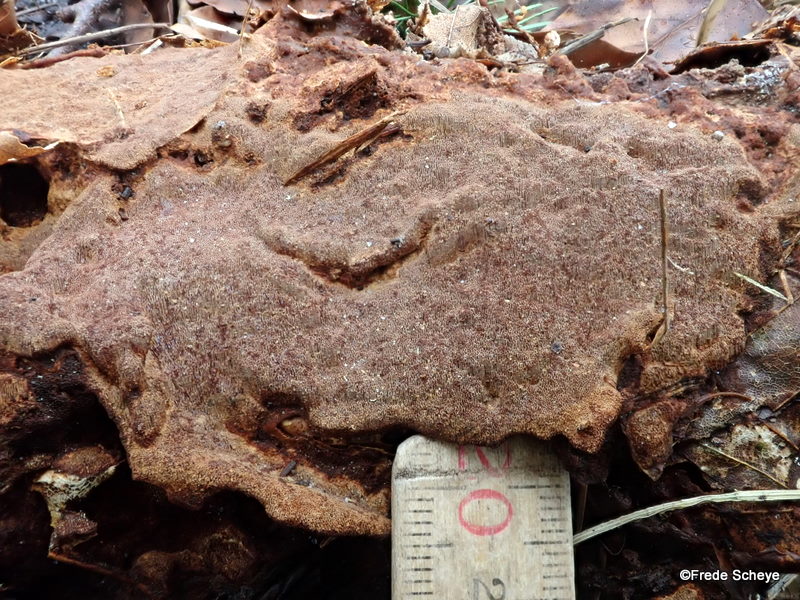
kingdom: Fungi
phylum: Basidiomycota
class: Agaricomycetes
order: Hymenochaetales
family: Hymenochaetaceae
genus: Mensularia
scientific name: Mensularia nodulosa
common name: bøge-spejlporesvamp
